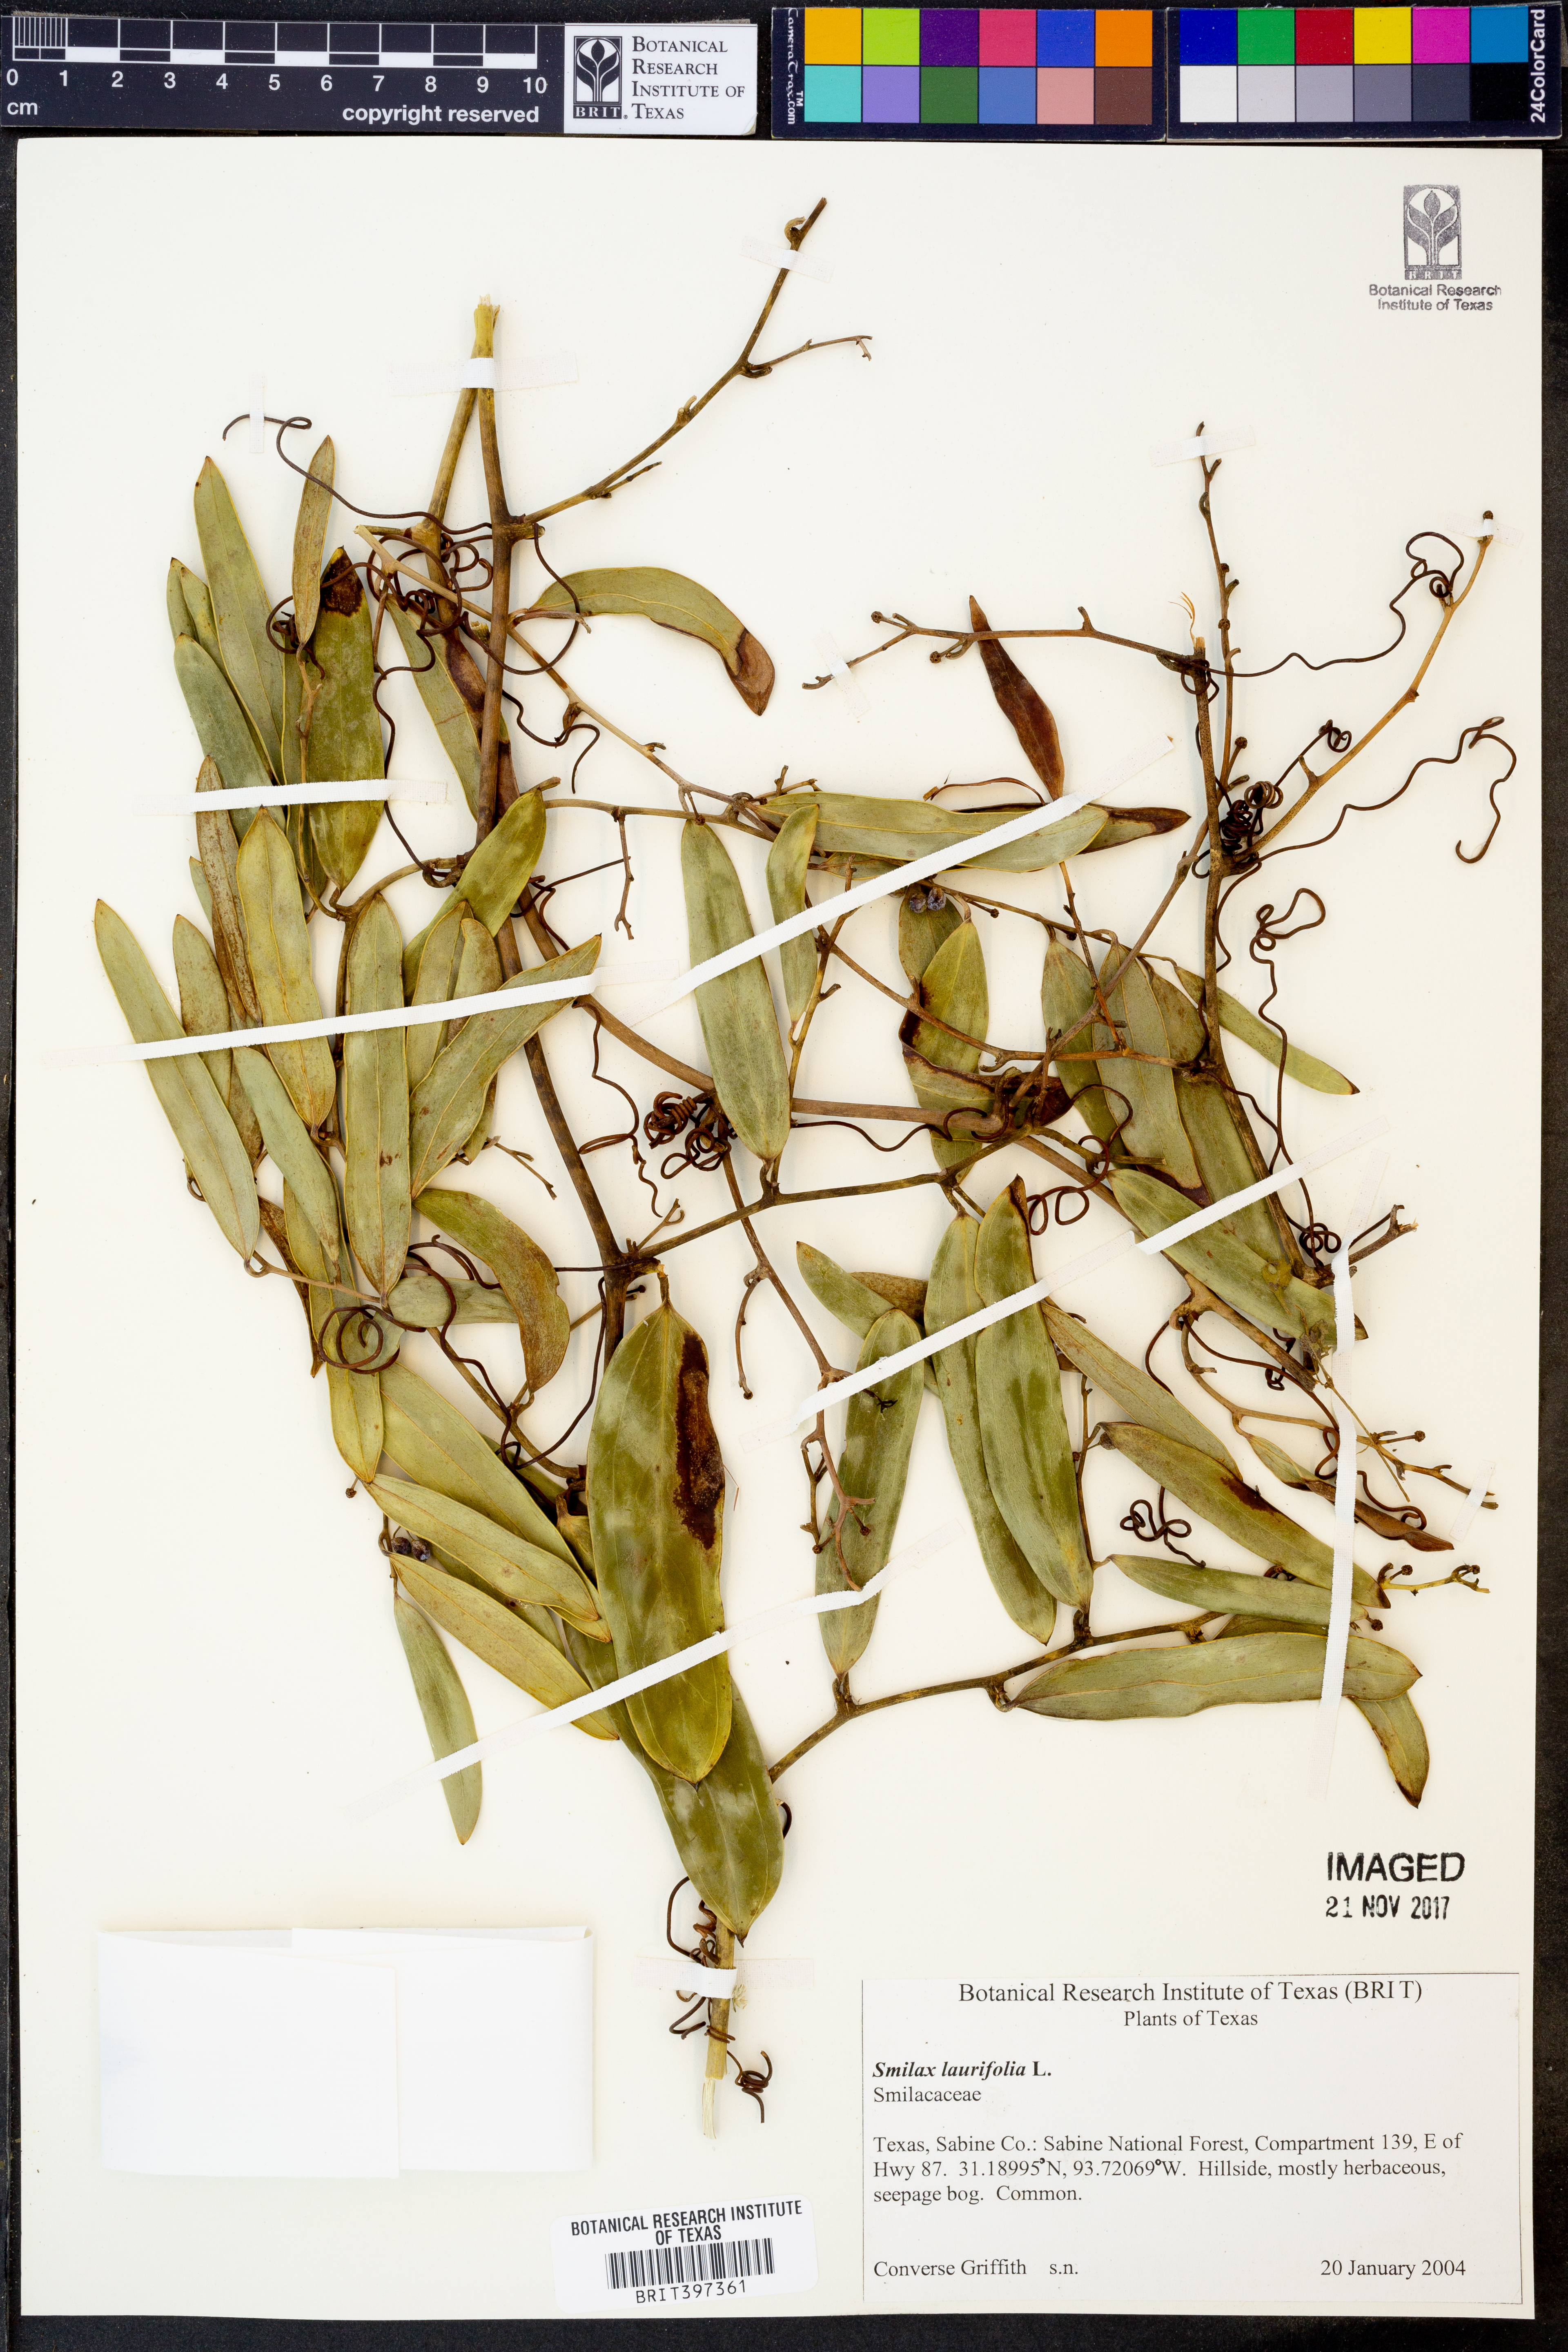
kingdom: Plantae
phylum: Tracheophyta
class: Liliopsida
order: Liliales
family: Smilacaceae
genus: Smilax
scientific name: Smilax laurifolia
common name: Bamboovine
